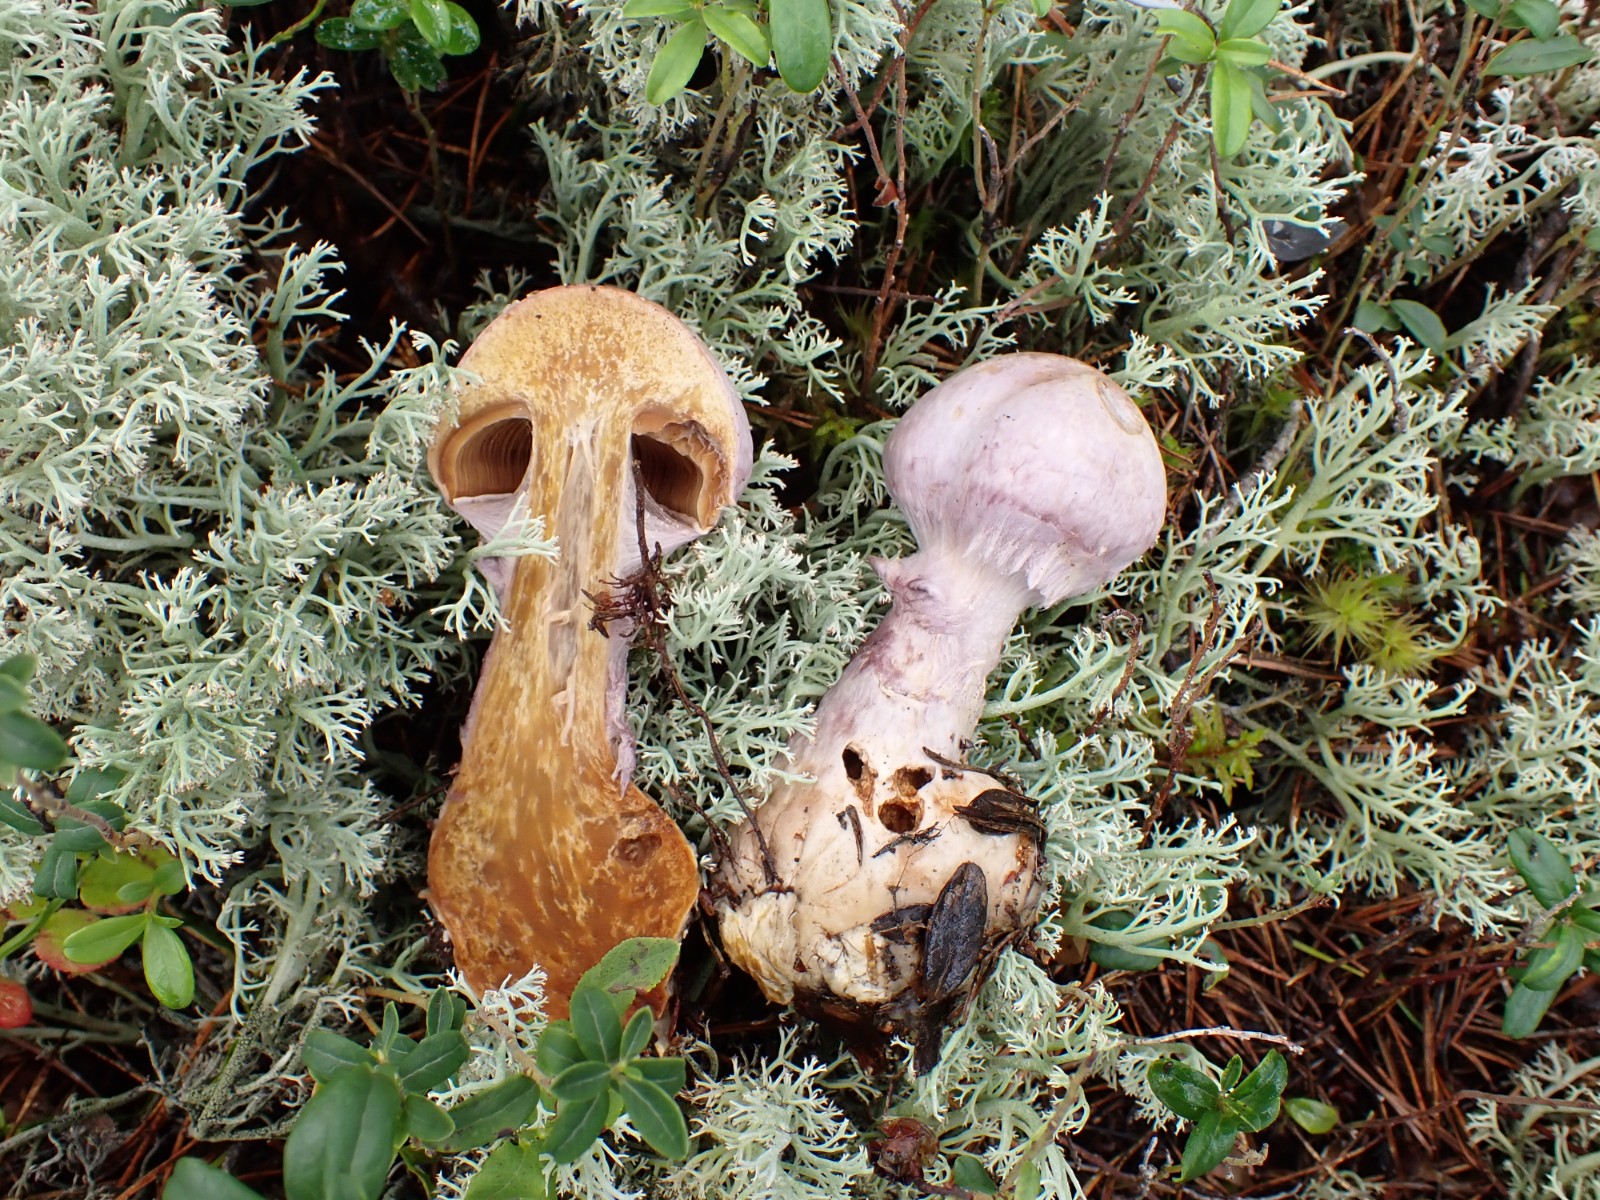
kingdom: Fungi
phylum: Basidiomycota
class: Agaricomycetes
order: Agaricales
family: Cortinariaceae
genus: Cortinarius
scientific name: Cortinarius traganus
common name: safrankødet slørhat
